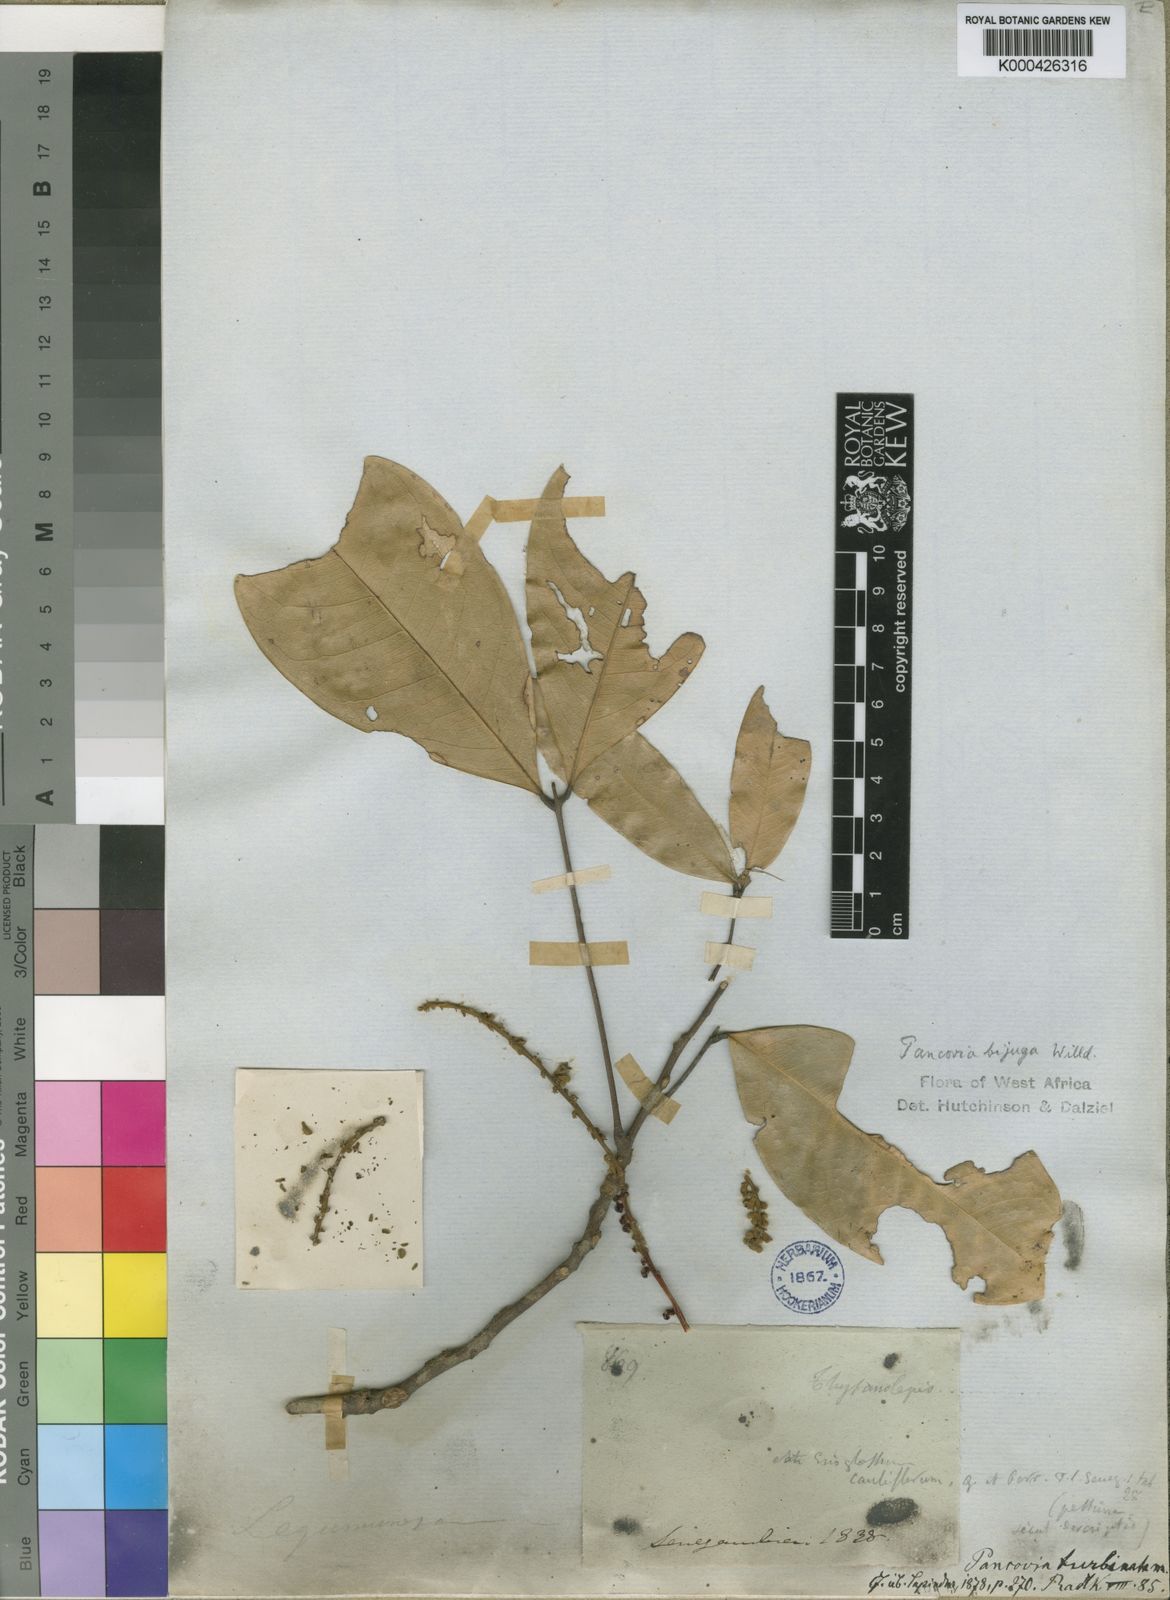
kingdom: Plantae
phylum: Tracheophyta
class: Magnoliopsida
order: Sapindales
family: Sapindaceae
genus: Pancovia
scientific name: Pancovia turbinata
